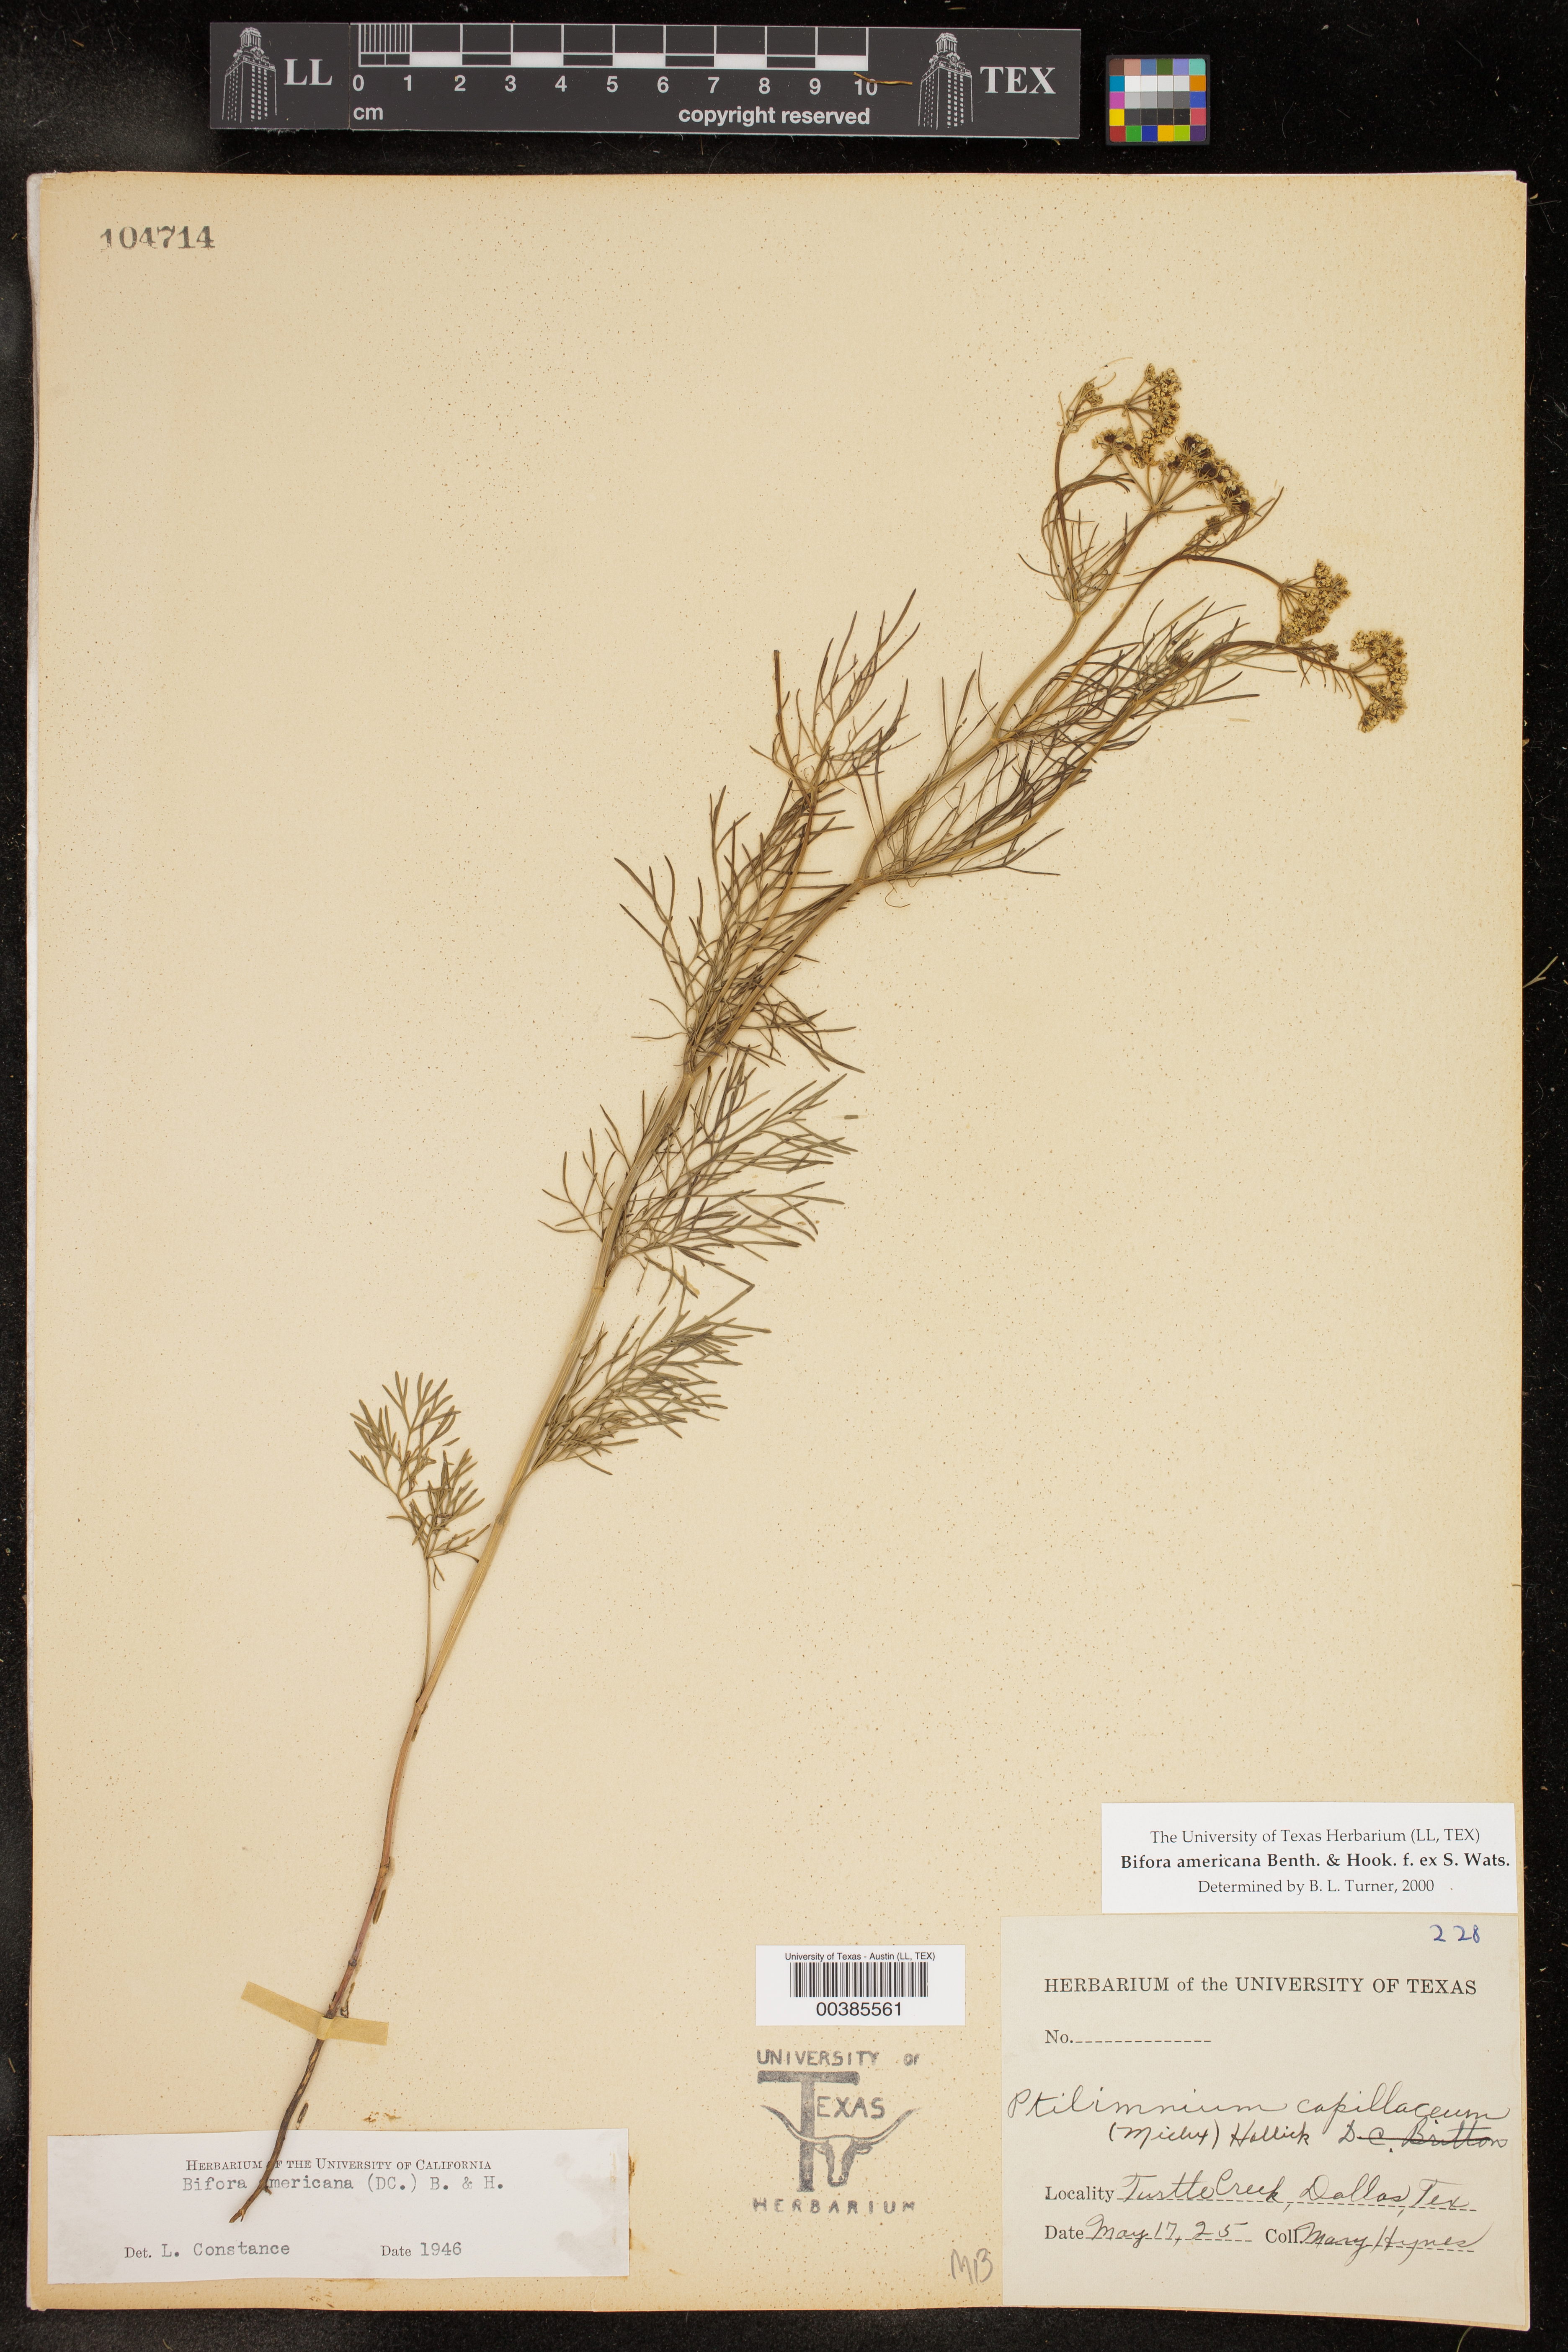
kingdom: Plantae
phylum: Tracheophyta
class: Magnoliopsida
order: Apiales
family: Apiaceae
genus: Atrema
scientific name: Atrema americanum
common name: Prairie-bishop
